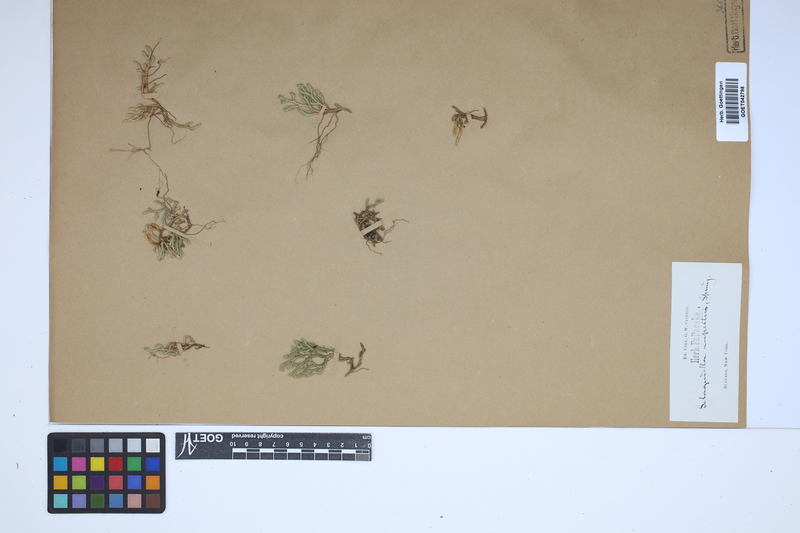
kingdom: Plantae
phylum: Tracheophyta
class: Lycopodiopsida
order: Selaginellales
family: Selaginellaceae
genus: Selaginella
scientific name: Selaginella rupestris
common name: Dwarf spikemoss
